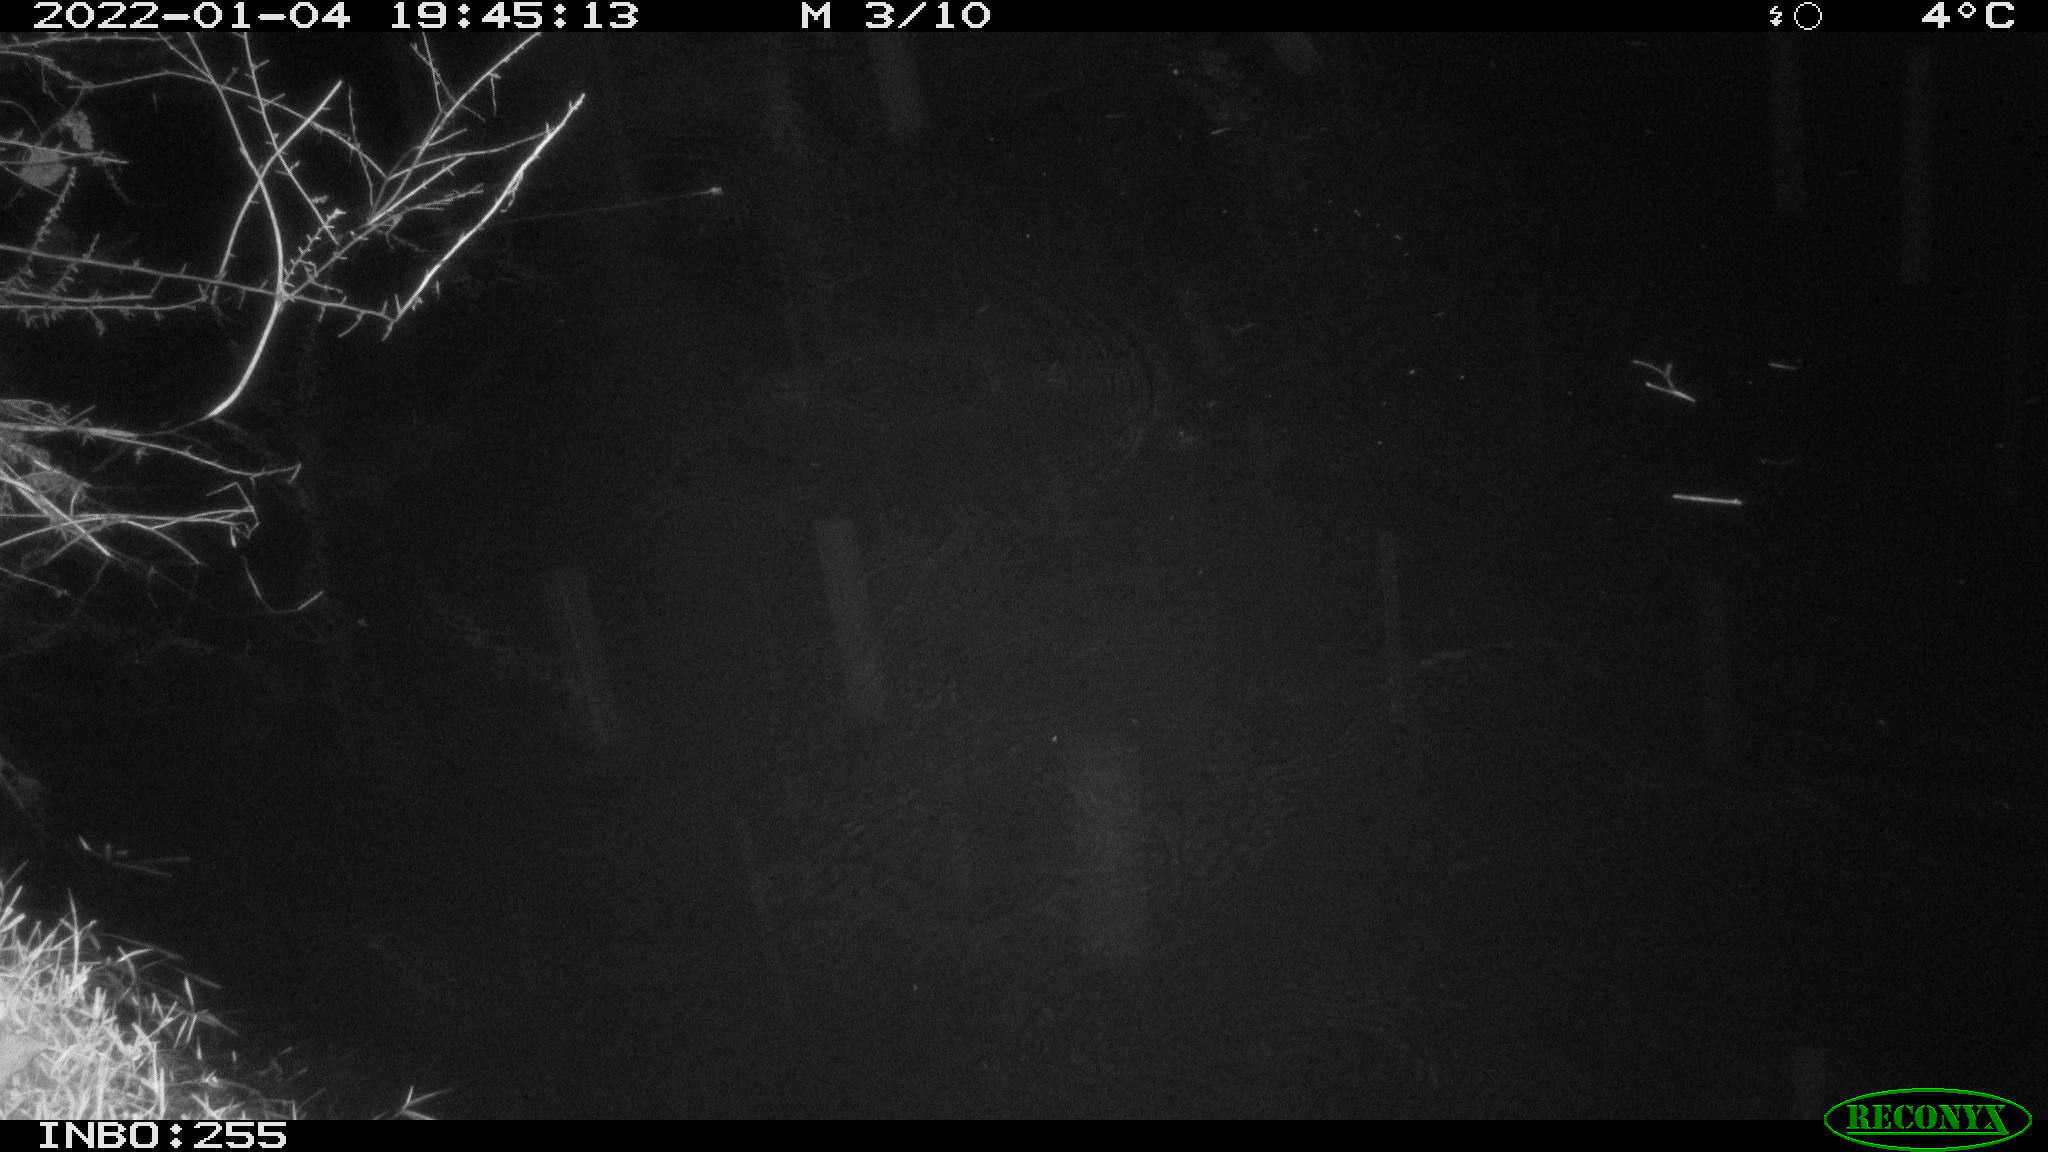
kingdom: Animalia
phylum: Chordata
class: Aves
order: Anseriformes
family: Anatidae
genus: Anas
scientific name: Anas platyrhynchos
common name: Mallard
